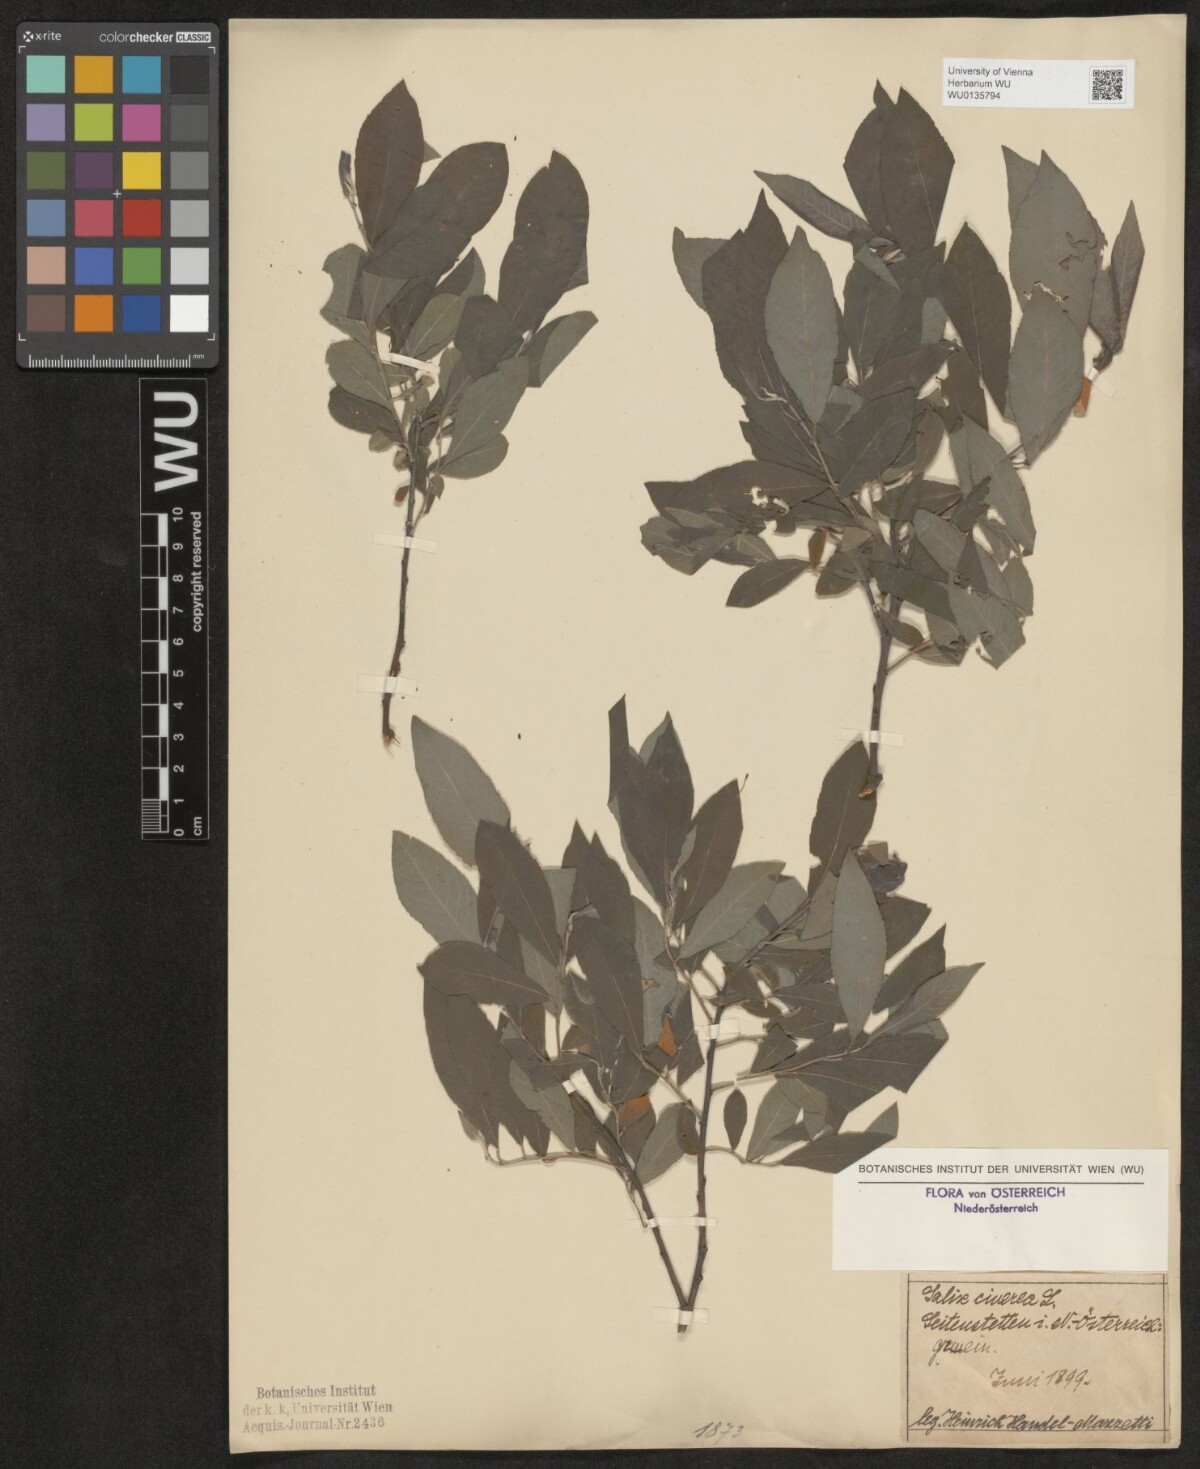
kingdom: Plantae
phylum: Tracheophyta
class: Magnoliopsida
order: Malpighiales
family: Salicaceae
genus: Salix
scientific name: Salix cinerea
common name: Common sallow
